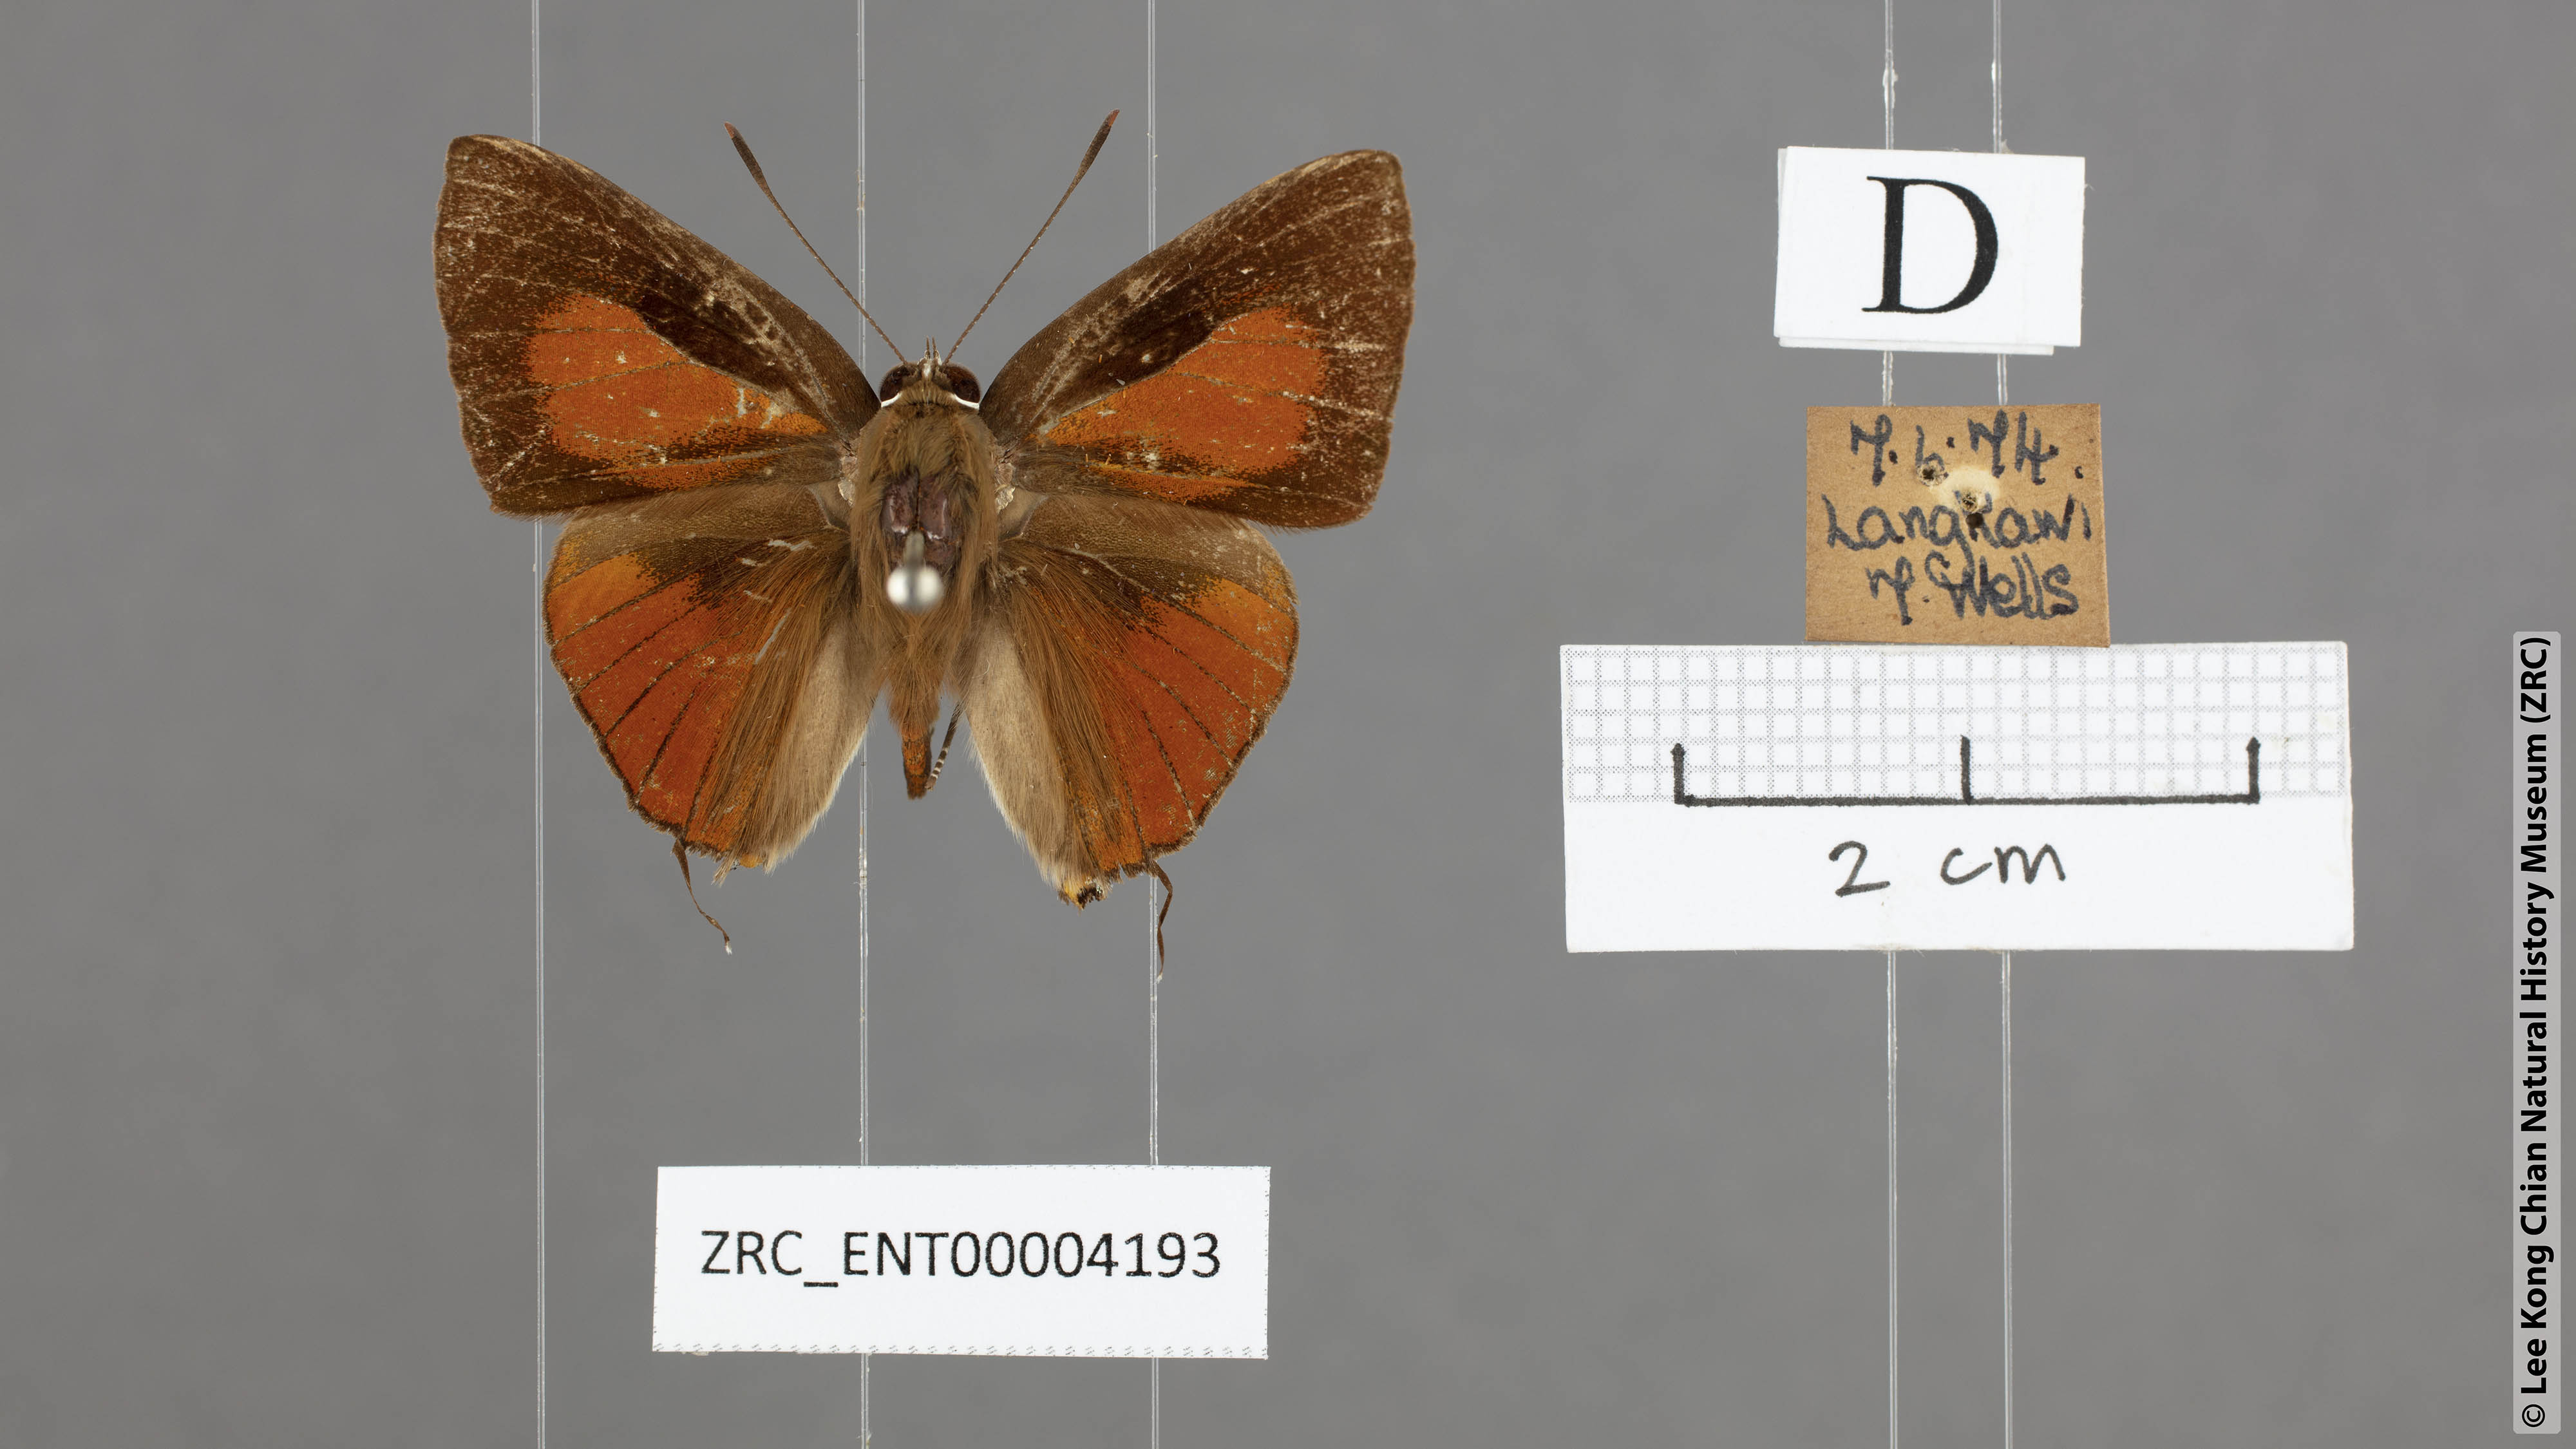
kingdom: Animalia
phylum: Arthropoda
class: Insecta
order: Lepidoptera
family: Lycaenidae
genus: Deudorix
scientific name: Deudorix epijarbas
